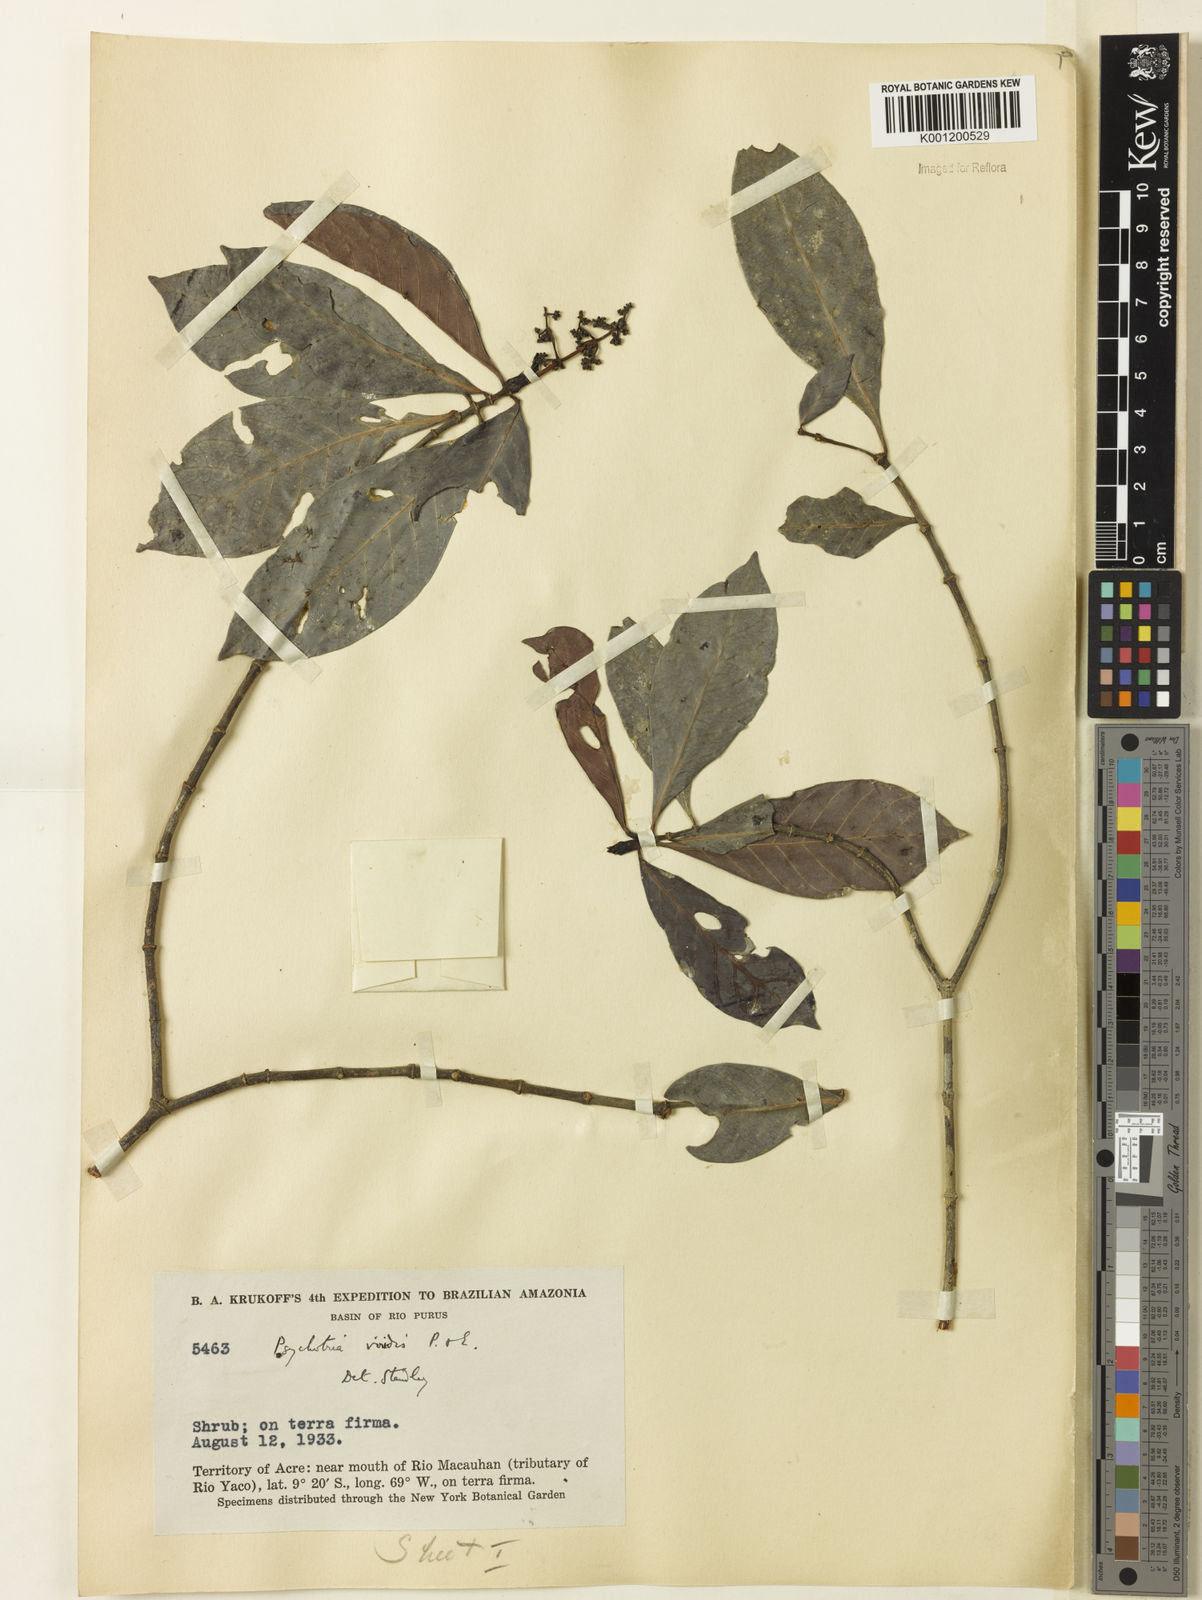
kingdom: Plantae
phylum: Tracheophyta
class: Magnoliopsida
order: Gentianales
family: Rubiaceae
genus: Psychotria
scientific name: Psychotria viridis
